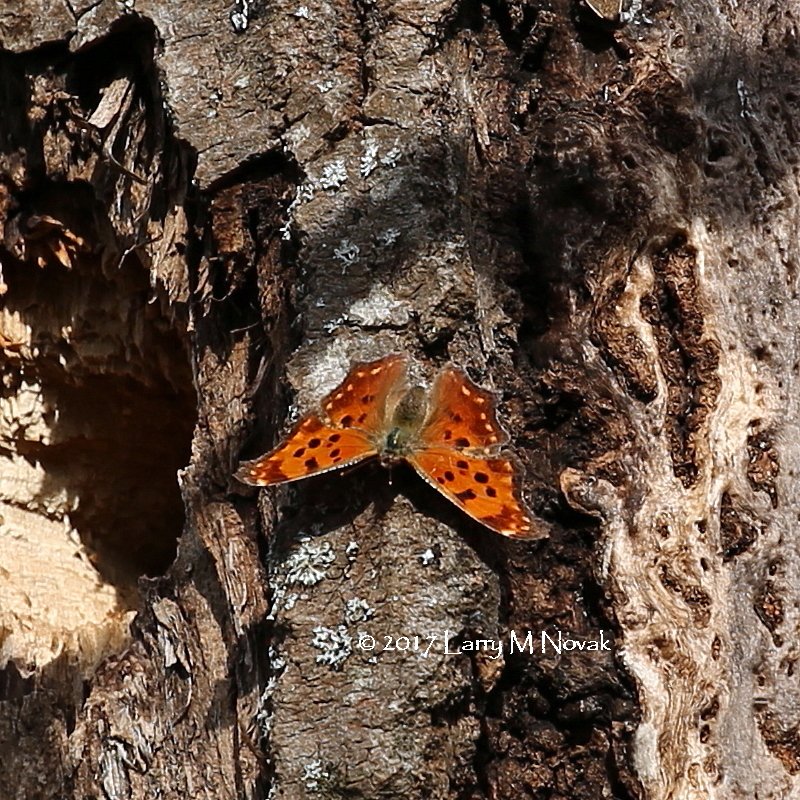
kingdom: Animalia
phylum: Arthropoda
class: Insecta
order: Lepidoptera
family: Nymphalidae
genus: Polygonia
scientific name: Polygonia comma
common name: Eastern Comma
